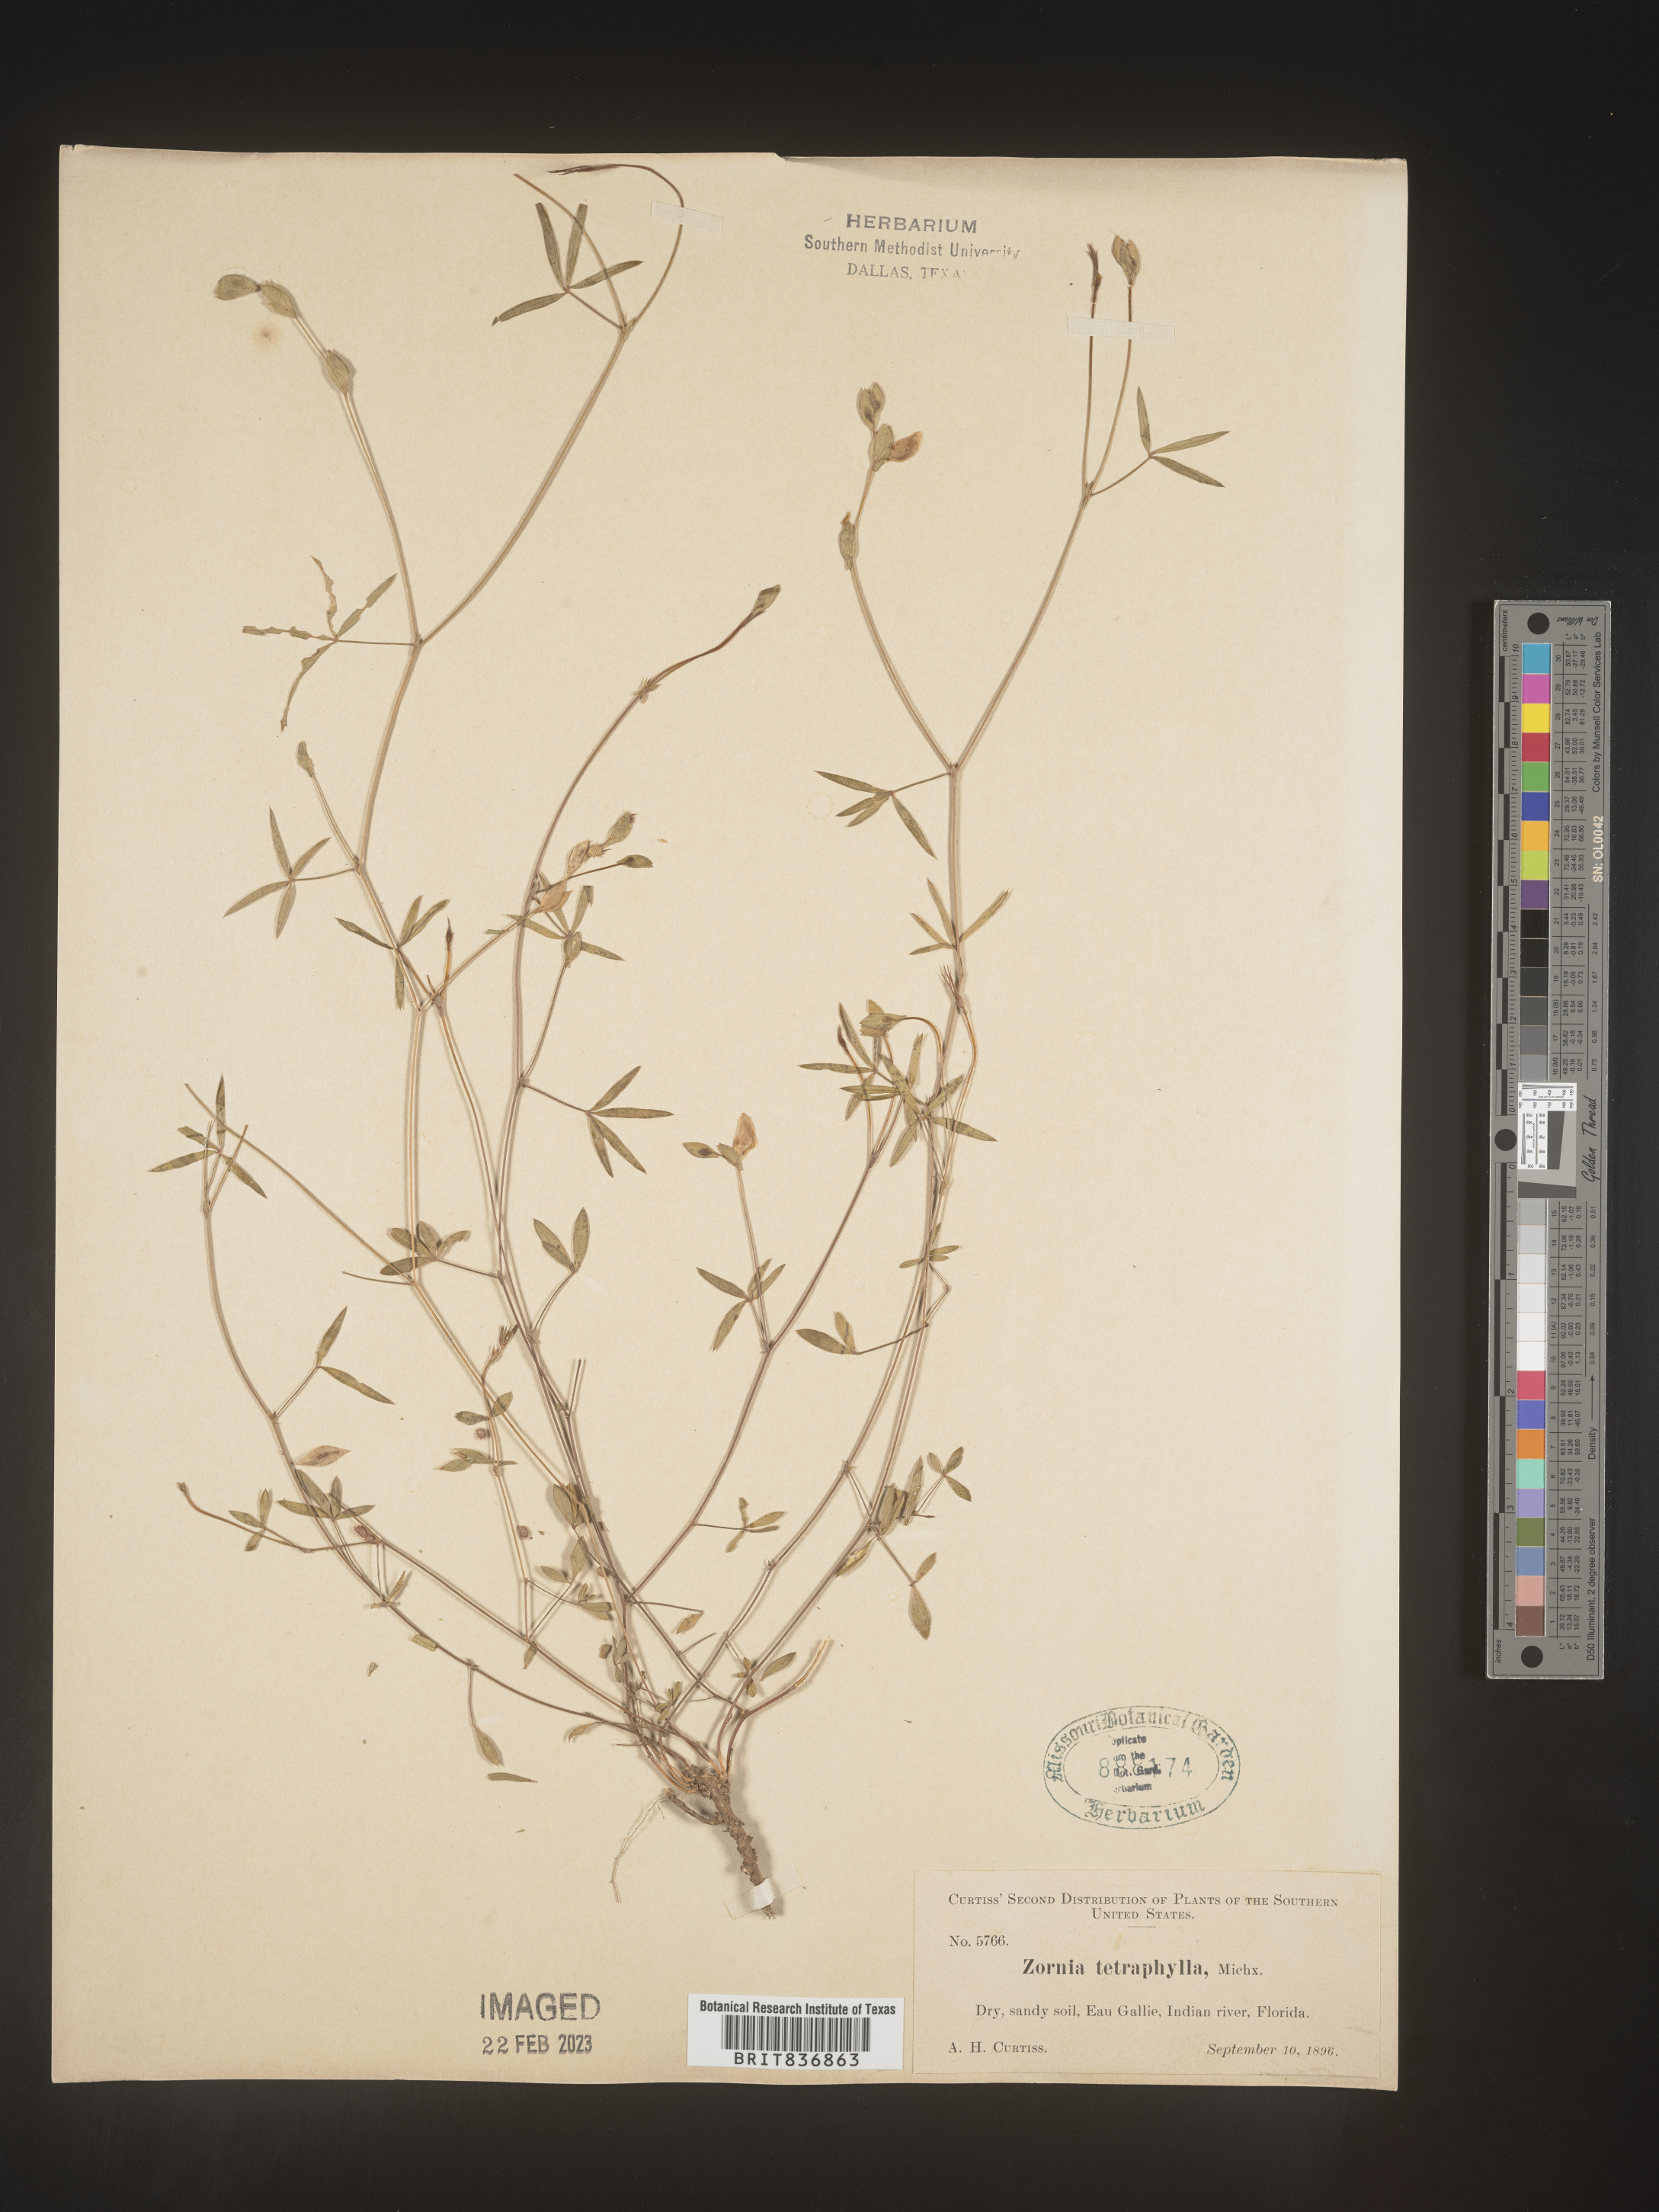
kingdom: Plantae
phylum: Tracheophyta
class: Magnoliopsida
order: Fabales
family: Fabaceae
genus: Zornia
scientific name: Zornia
